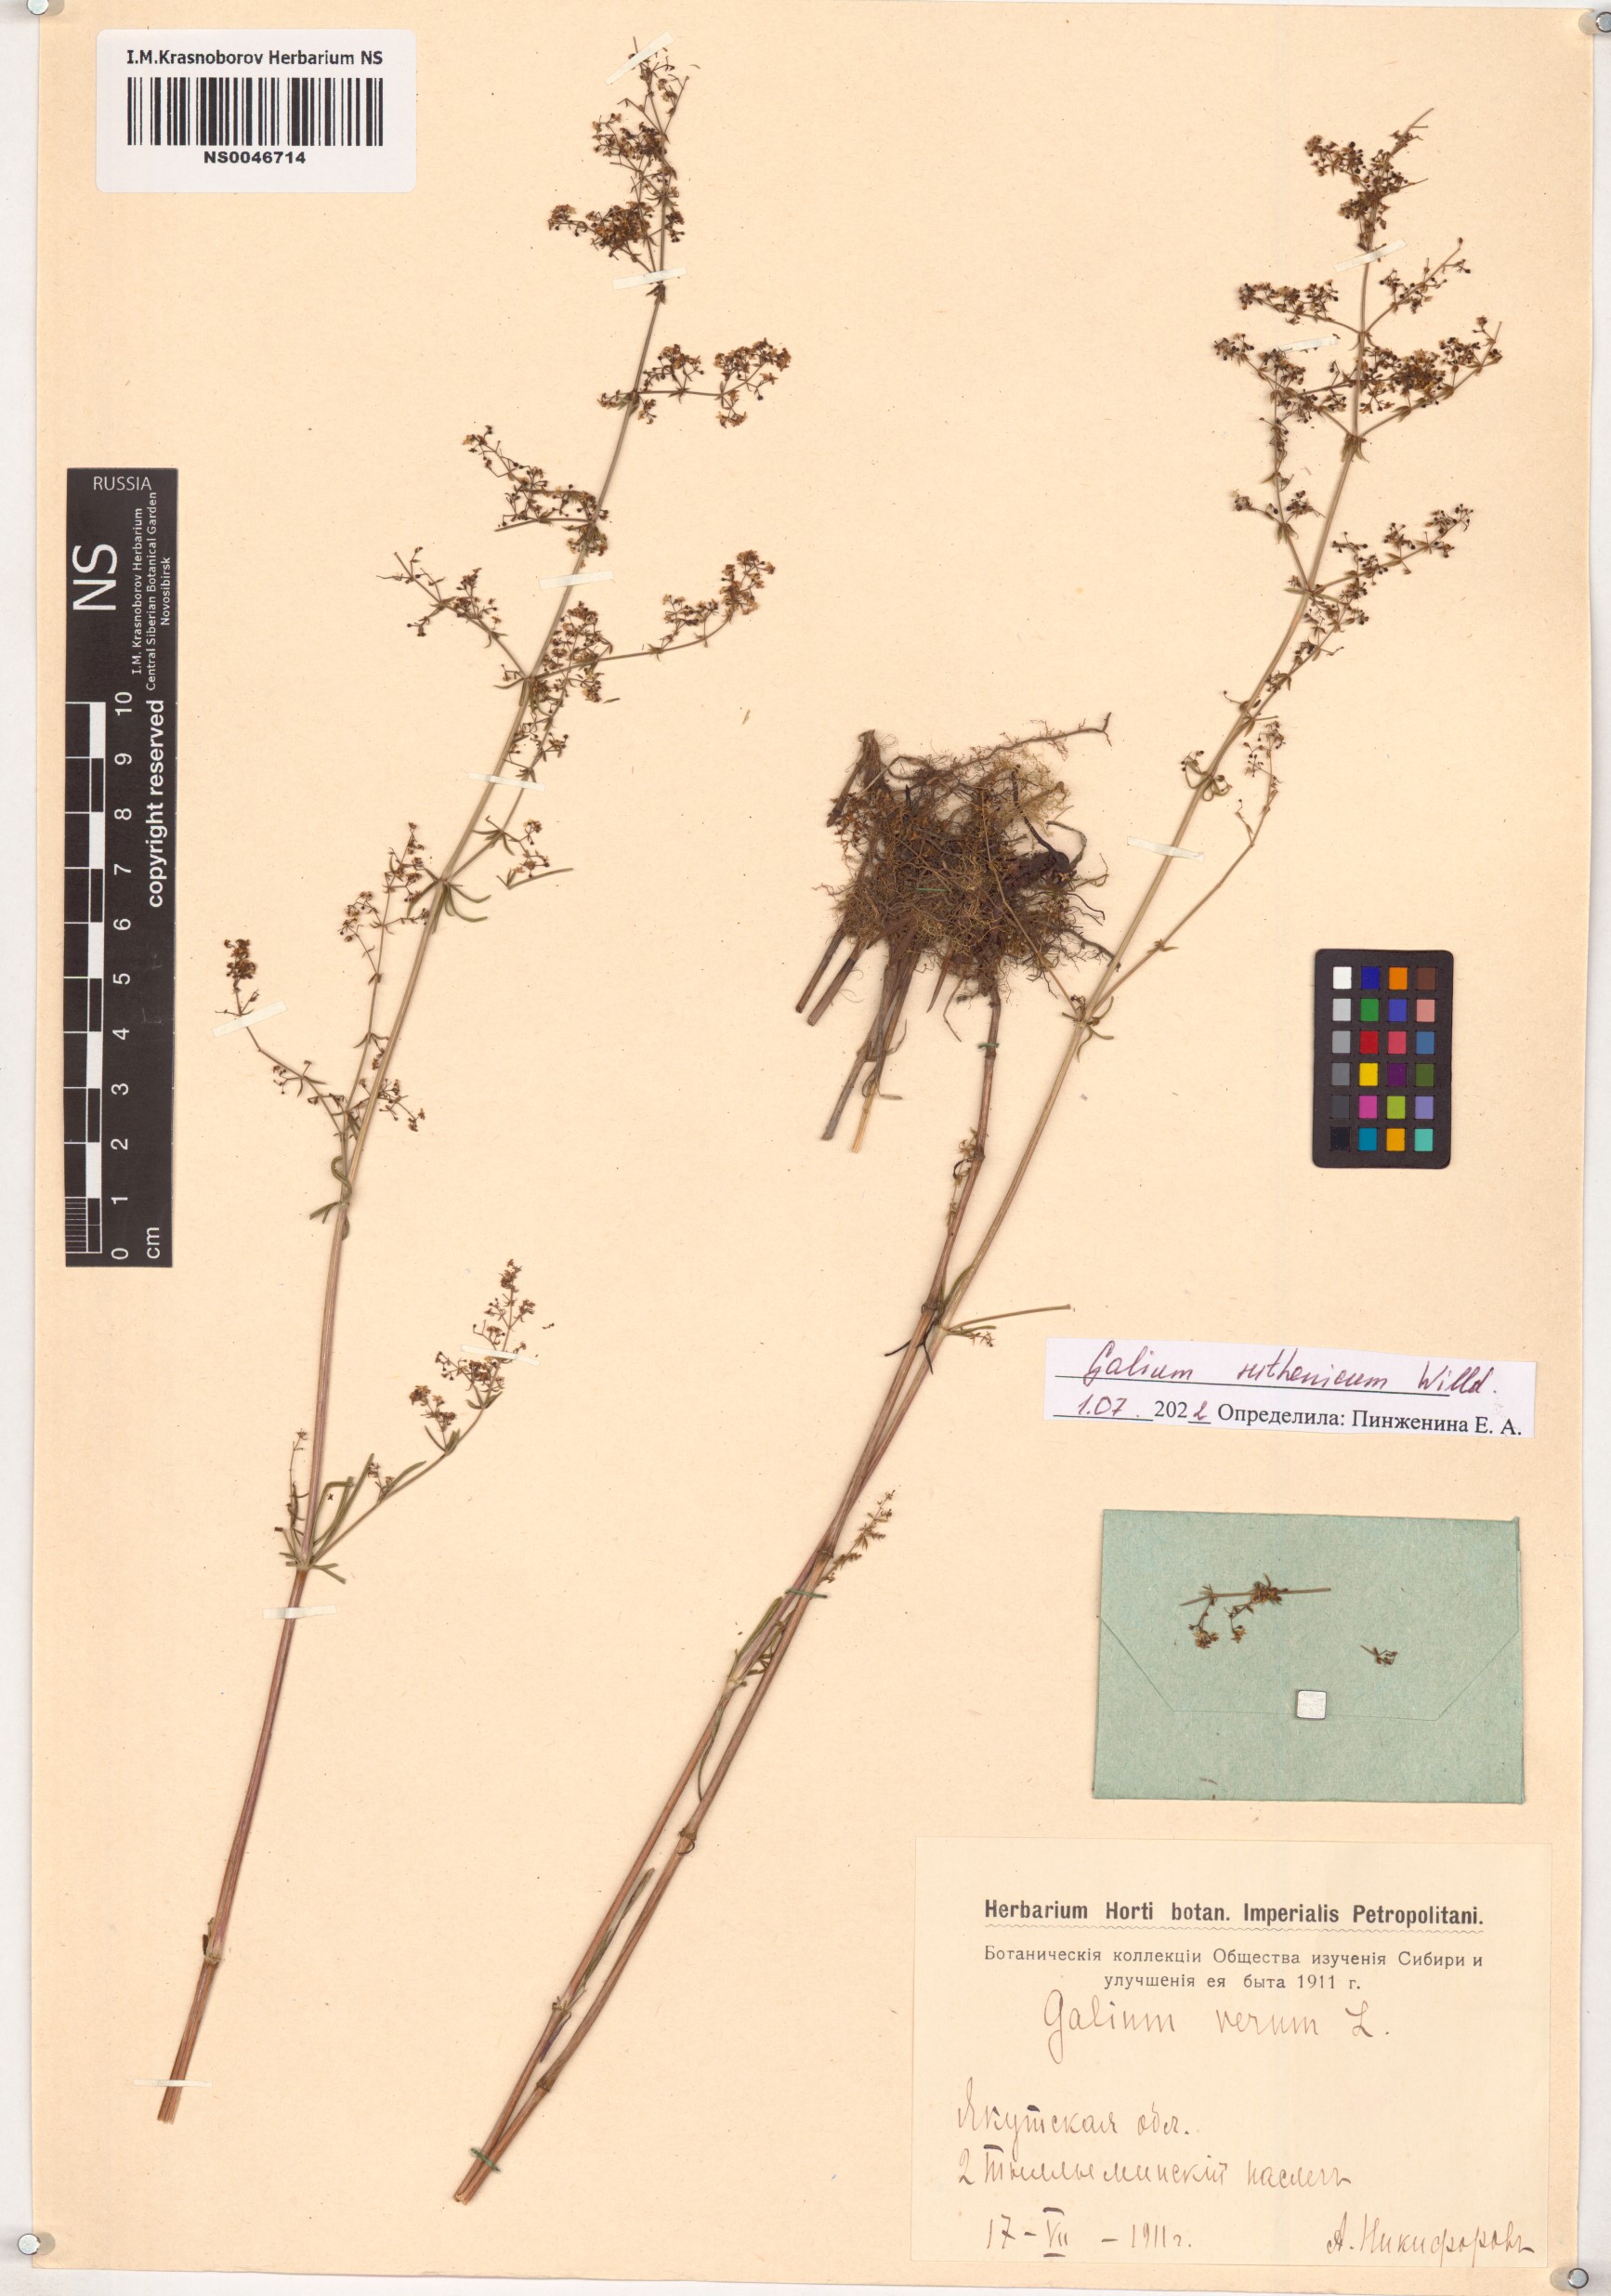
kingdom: Plantae
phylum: Tracheophyta
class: Magnoliopsida
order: Gentianales
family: Rubiaceae
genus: Galium
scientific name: Galium verum
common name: Lady's bedstraw
